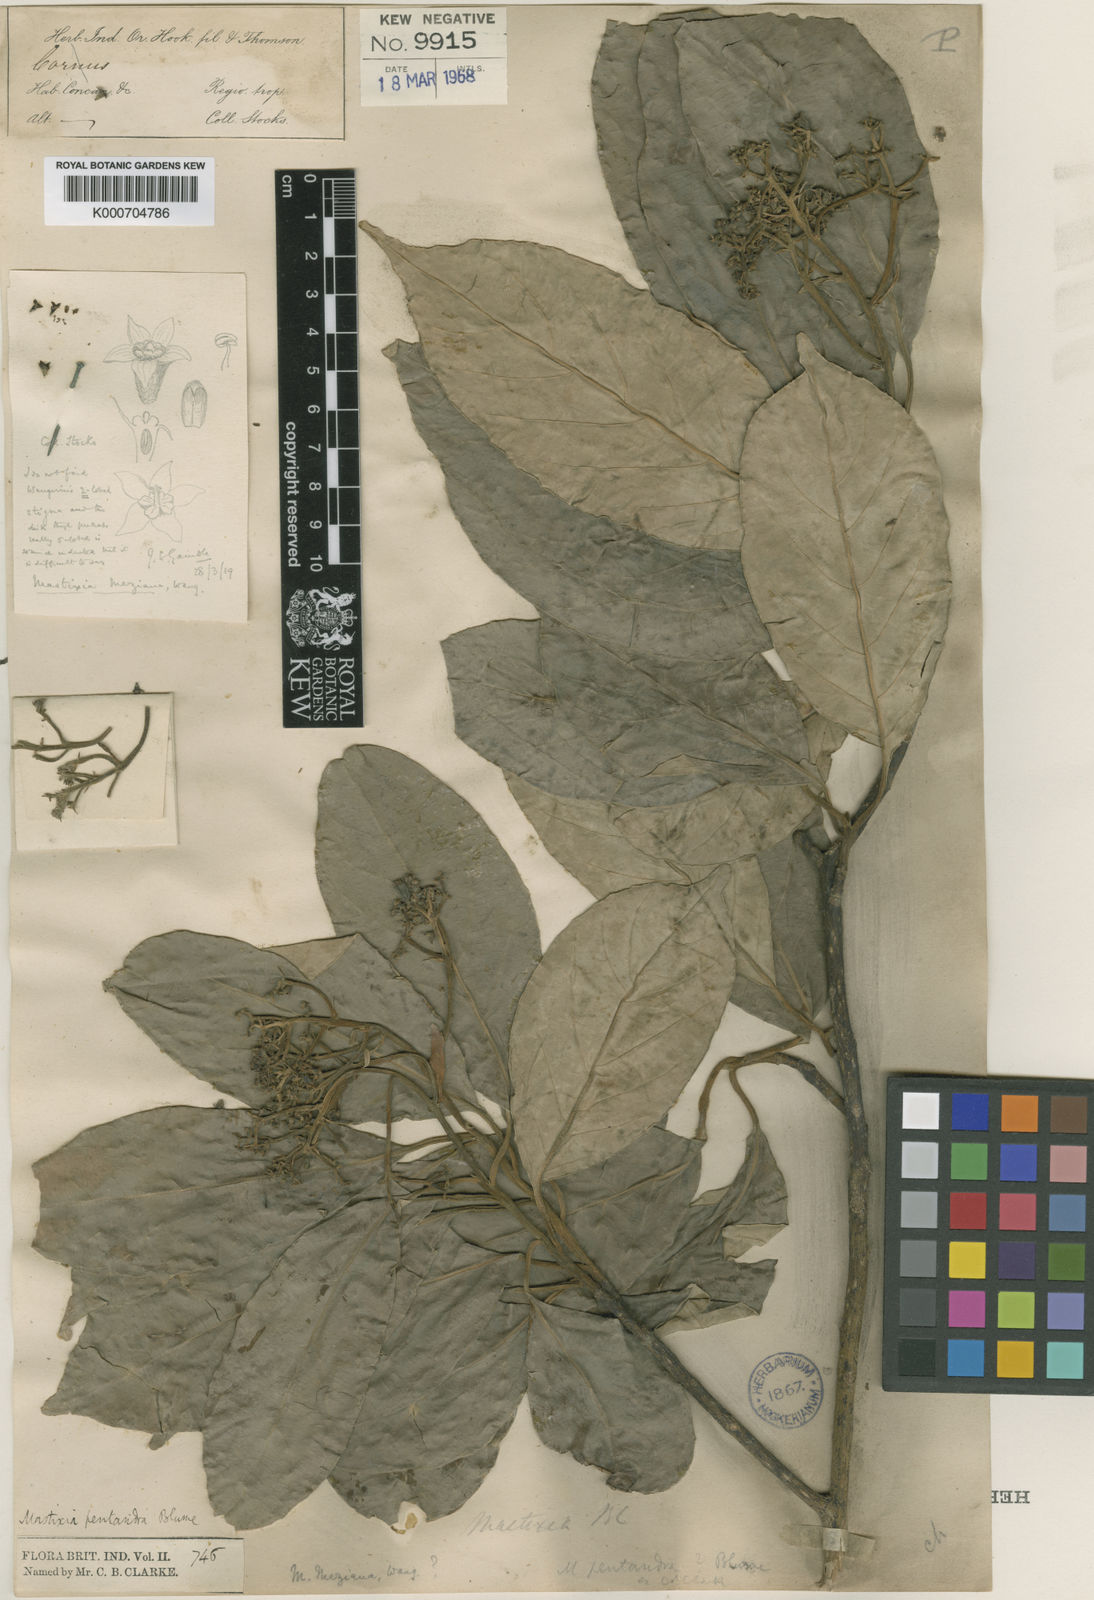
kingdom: Plantae
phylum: Tracheophyta
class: Magnoliopsida
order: Cornales
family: Nyssaceae
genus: Mastixia
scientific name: Mastixia arborea
